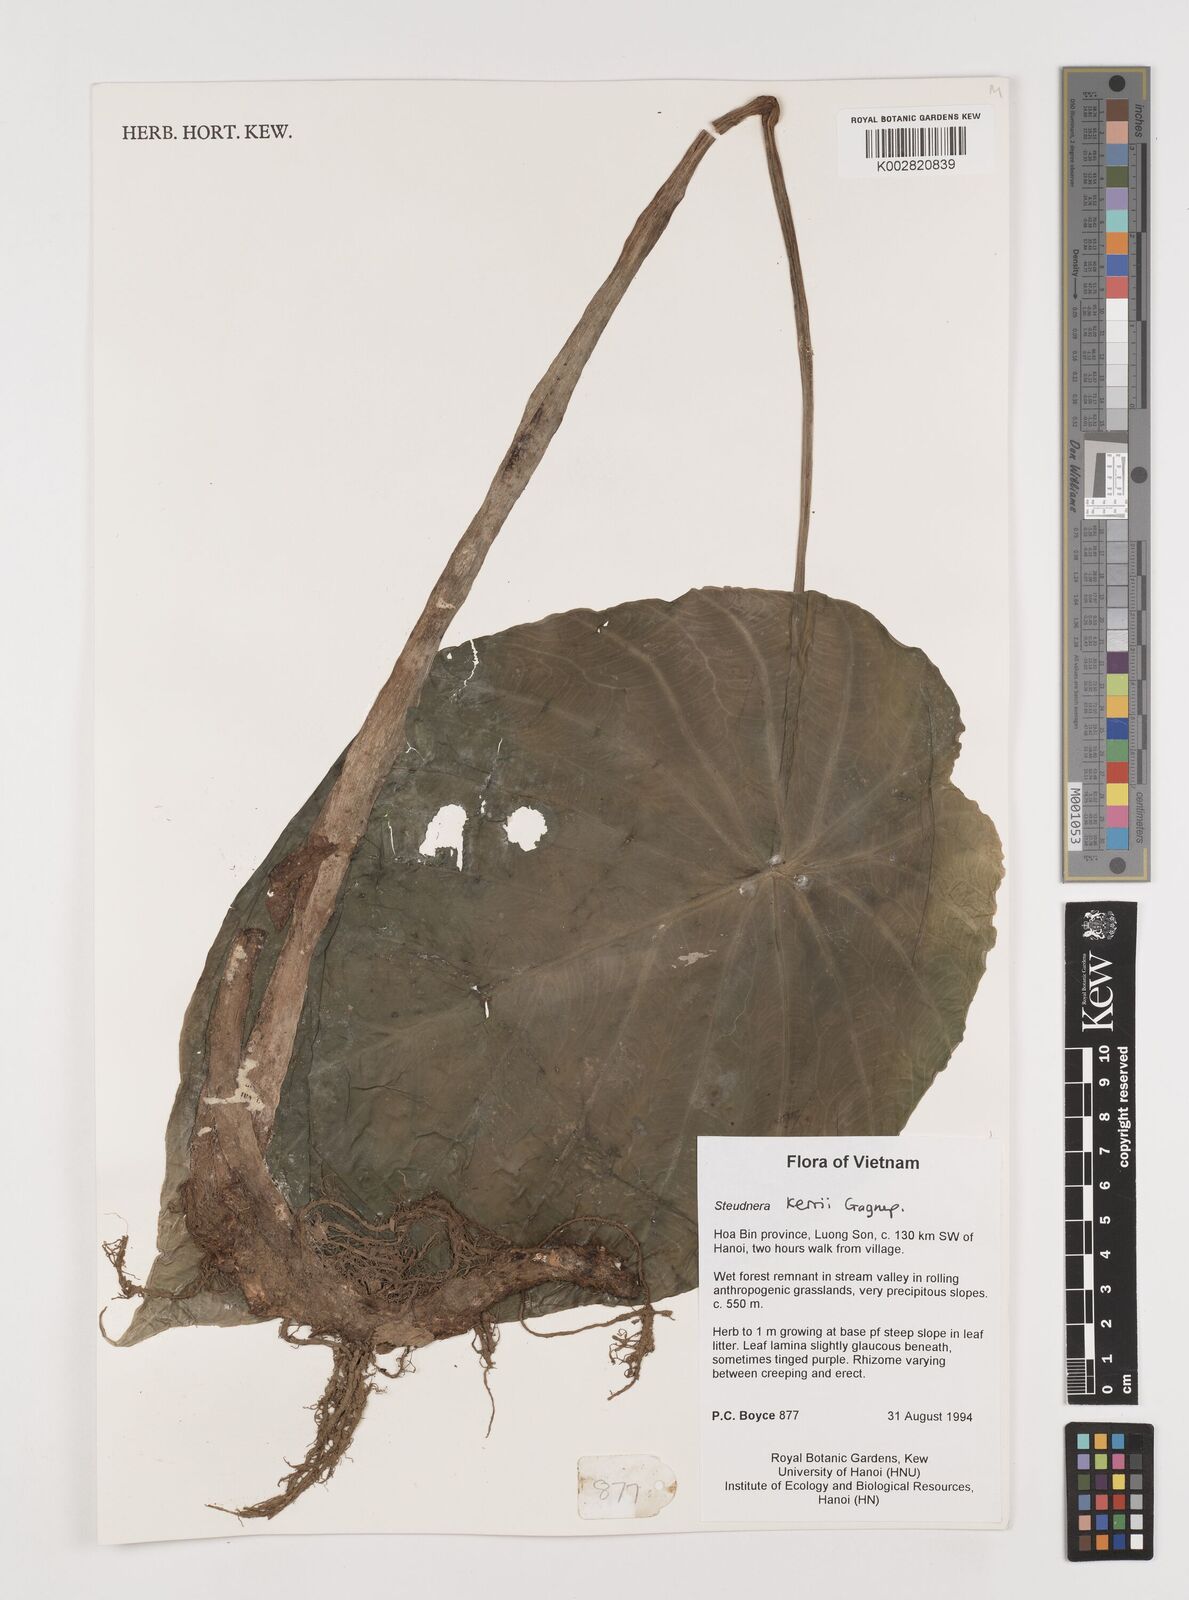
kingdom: Plantae
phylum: Tracheophyta
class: Liliopsida
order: Alismatales
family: Araceae
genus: Steudnera
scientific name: Steudnera kerrii
